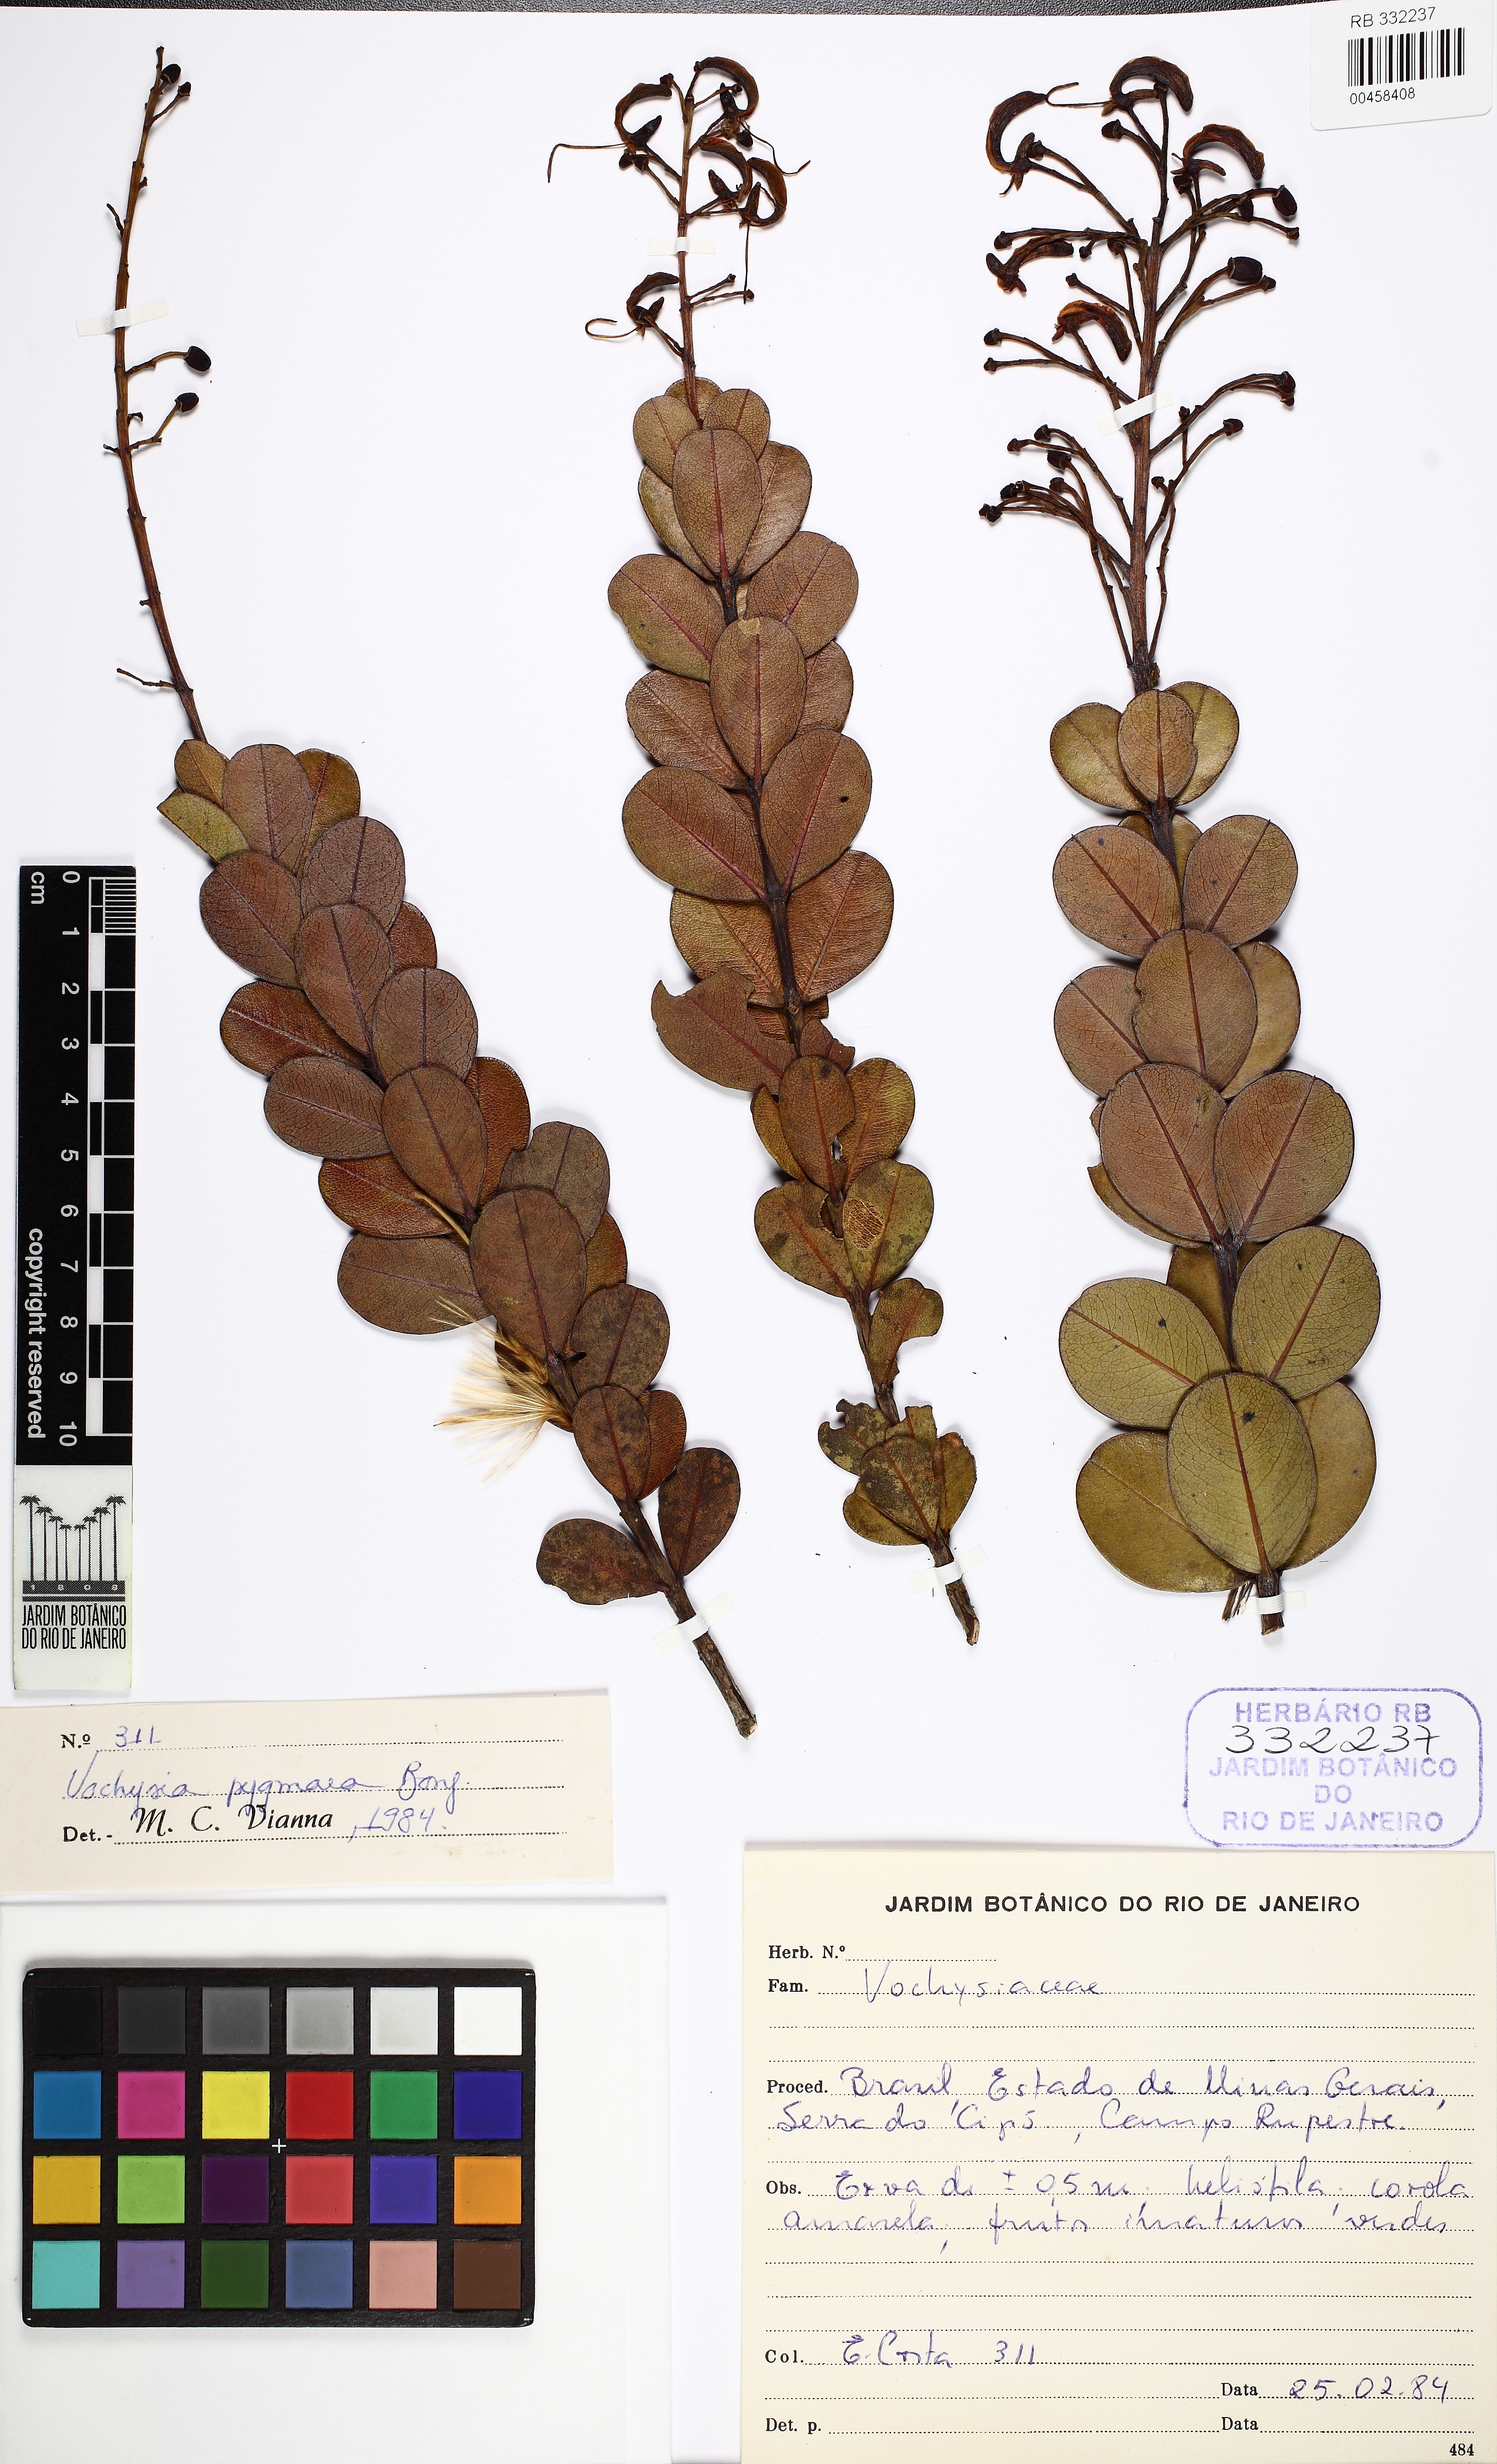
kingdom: Plantae
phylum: Tracheophyta
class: Magnoliopsida
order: Myrtales
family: Vochysiaceae
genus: Vochysia
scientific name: Vochysia pygmaea
